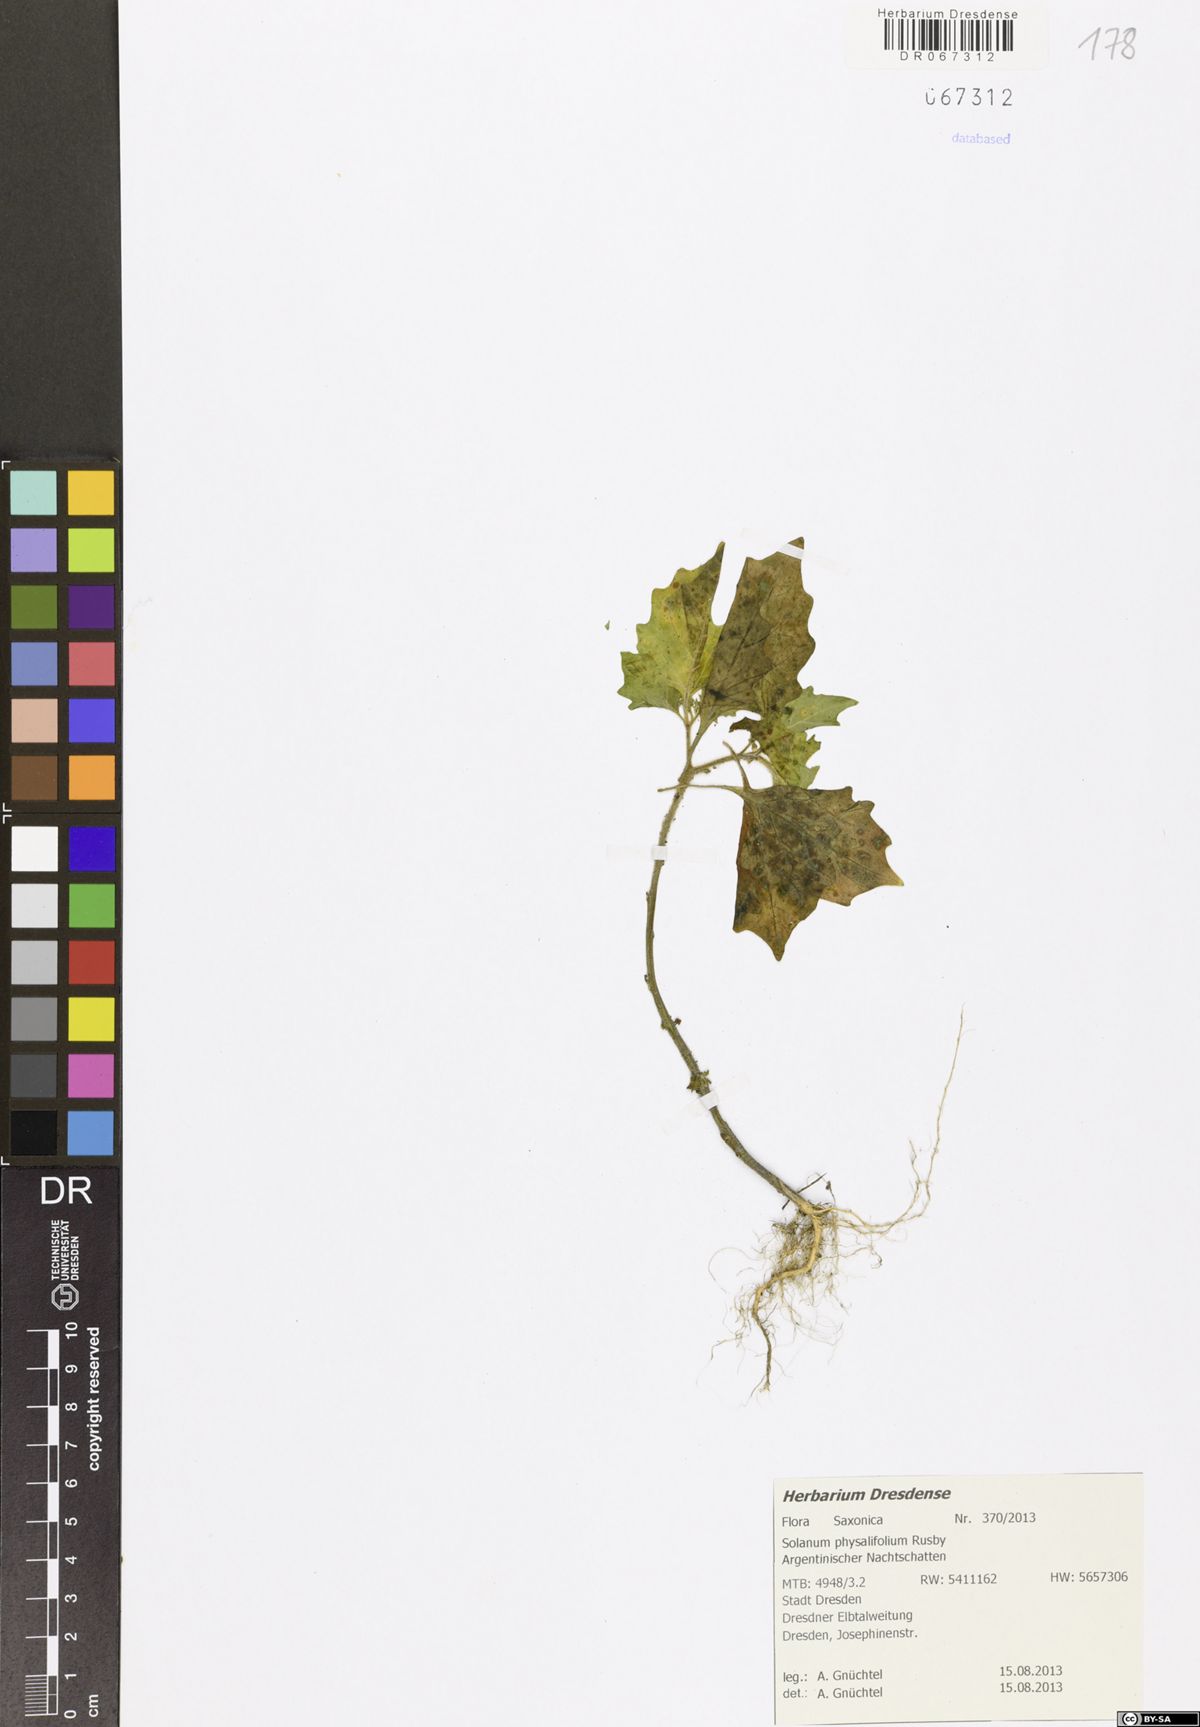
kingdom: Plantae
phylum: Tracheophyta
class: Magnoliopsida
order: Solanales
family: Solanaceae
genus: Solanum
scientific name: Solanum nitidibaccatum
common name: Hairy nightshade
